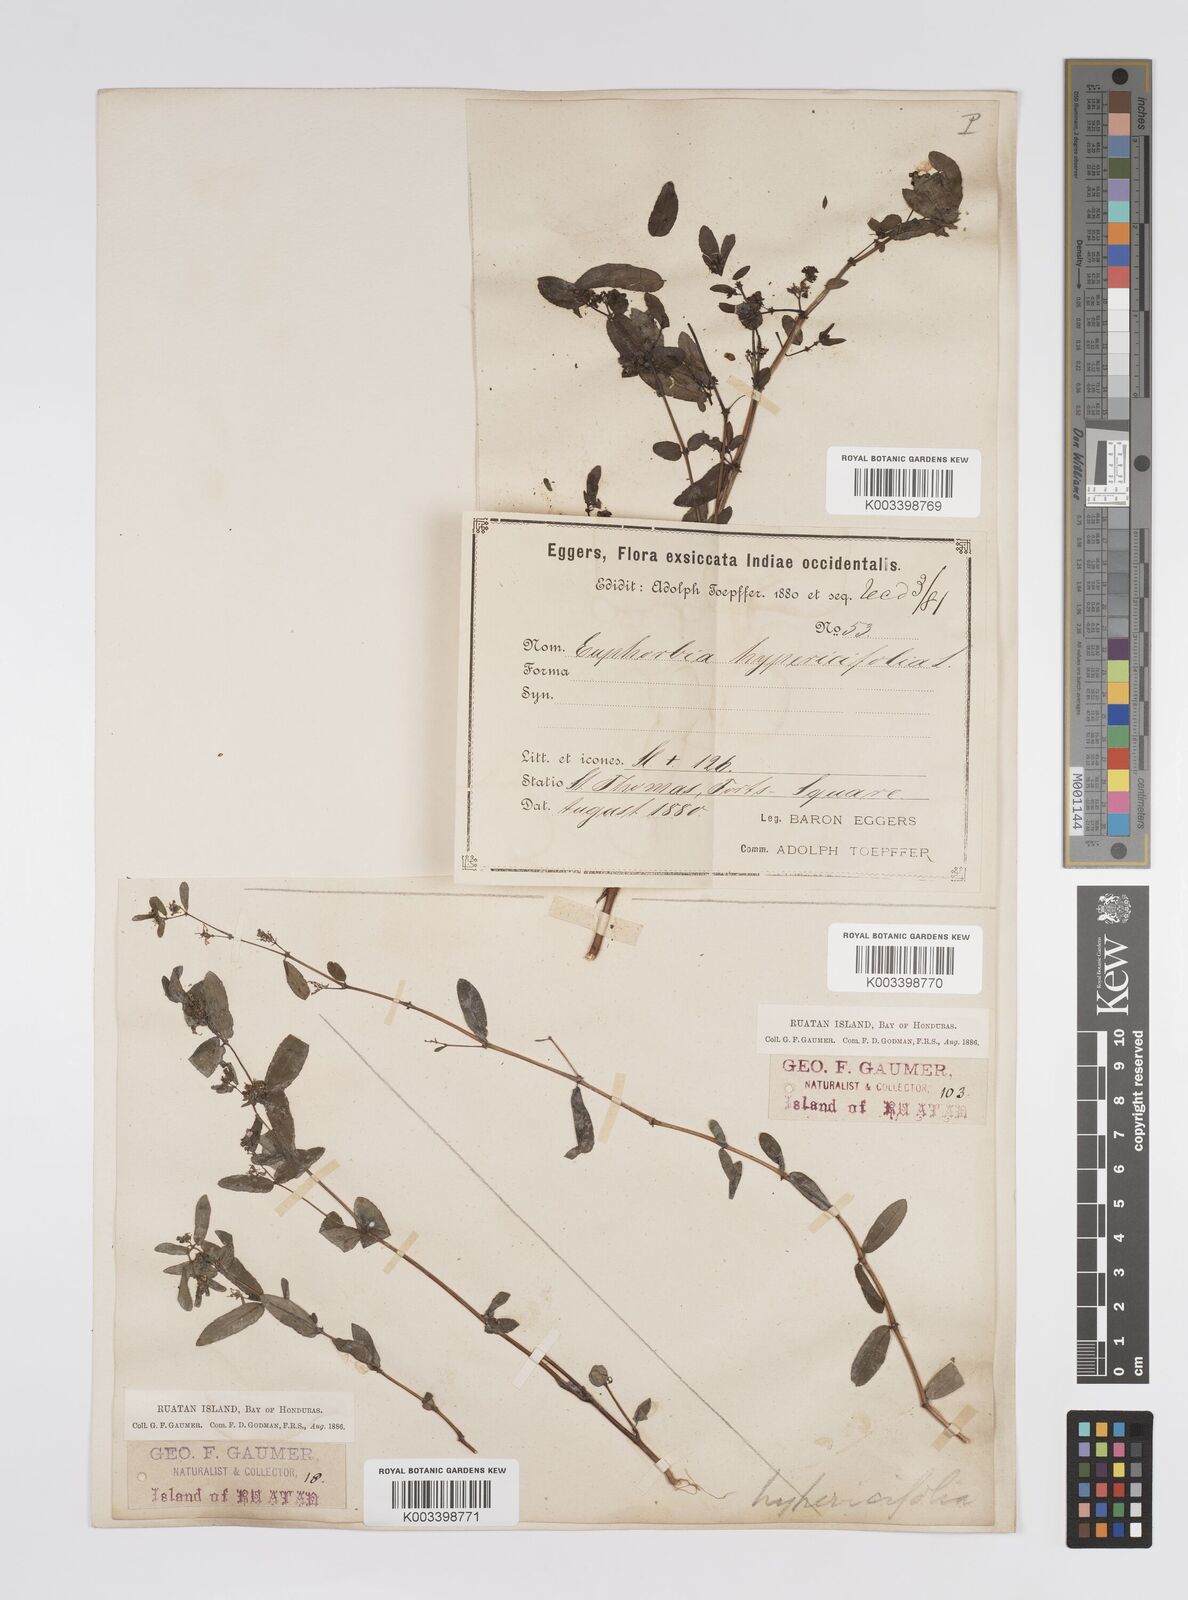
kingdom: Plantae
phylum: Tracheophyta
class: Magnoliopsida
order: Malpighiales
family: Euphorbiaceae
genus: Euphorbia
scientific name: Euphorbia hypericifolia
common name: Graceful sandmat
